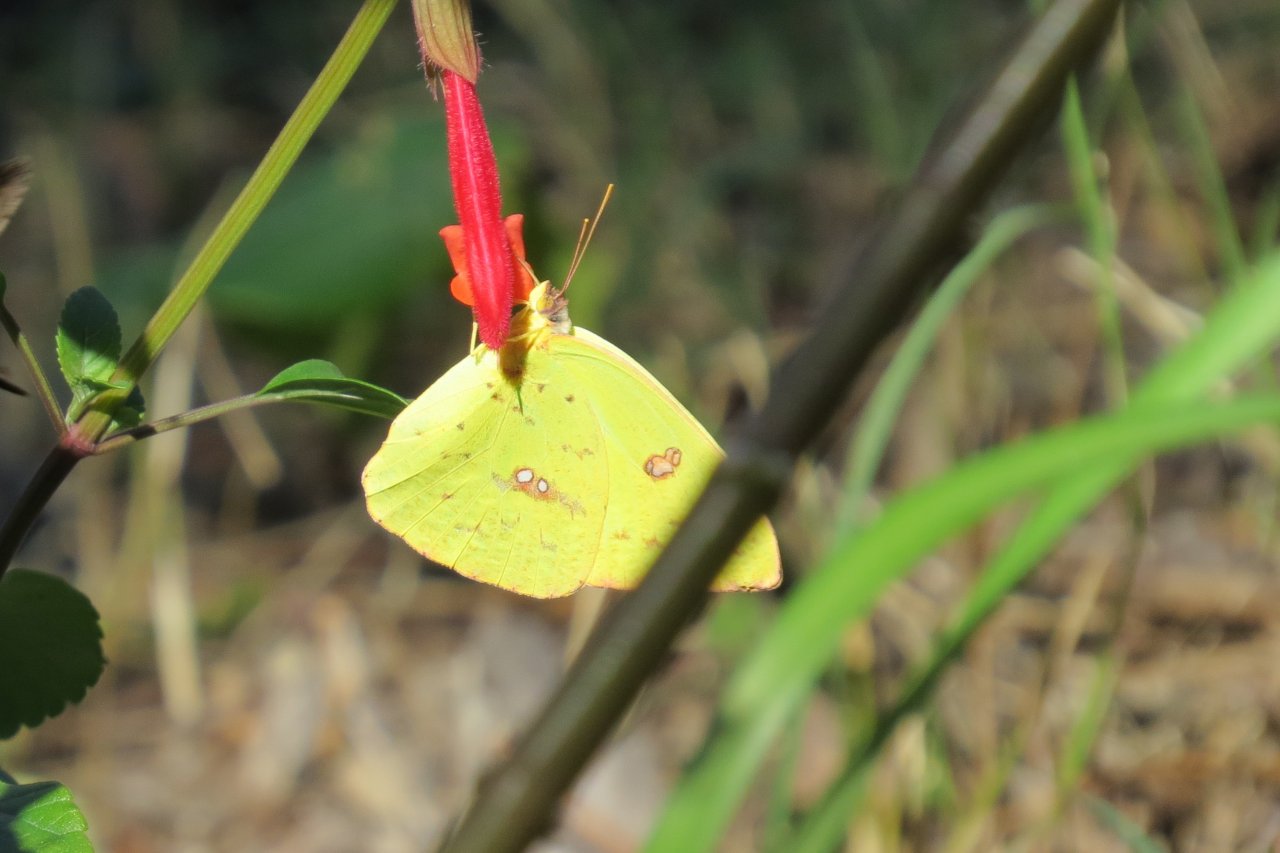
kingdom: Animalia
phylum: Arthropoda
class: Insecta
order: Lepidoptera
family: Pieridae
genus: Phoebis
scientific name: Phoebis sennae
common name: Cloudless Sulphur
